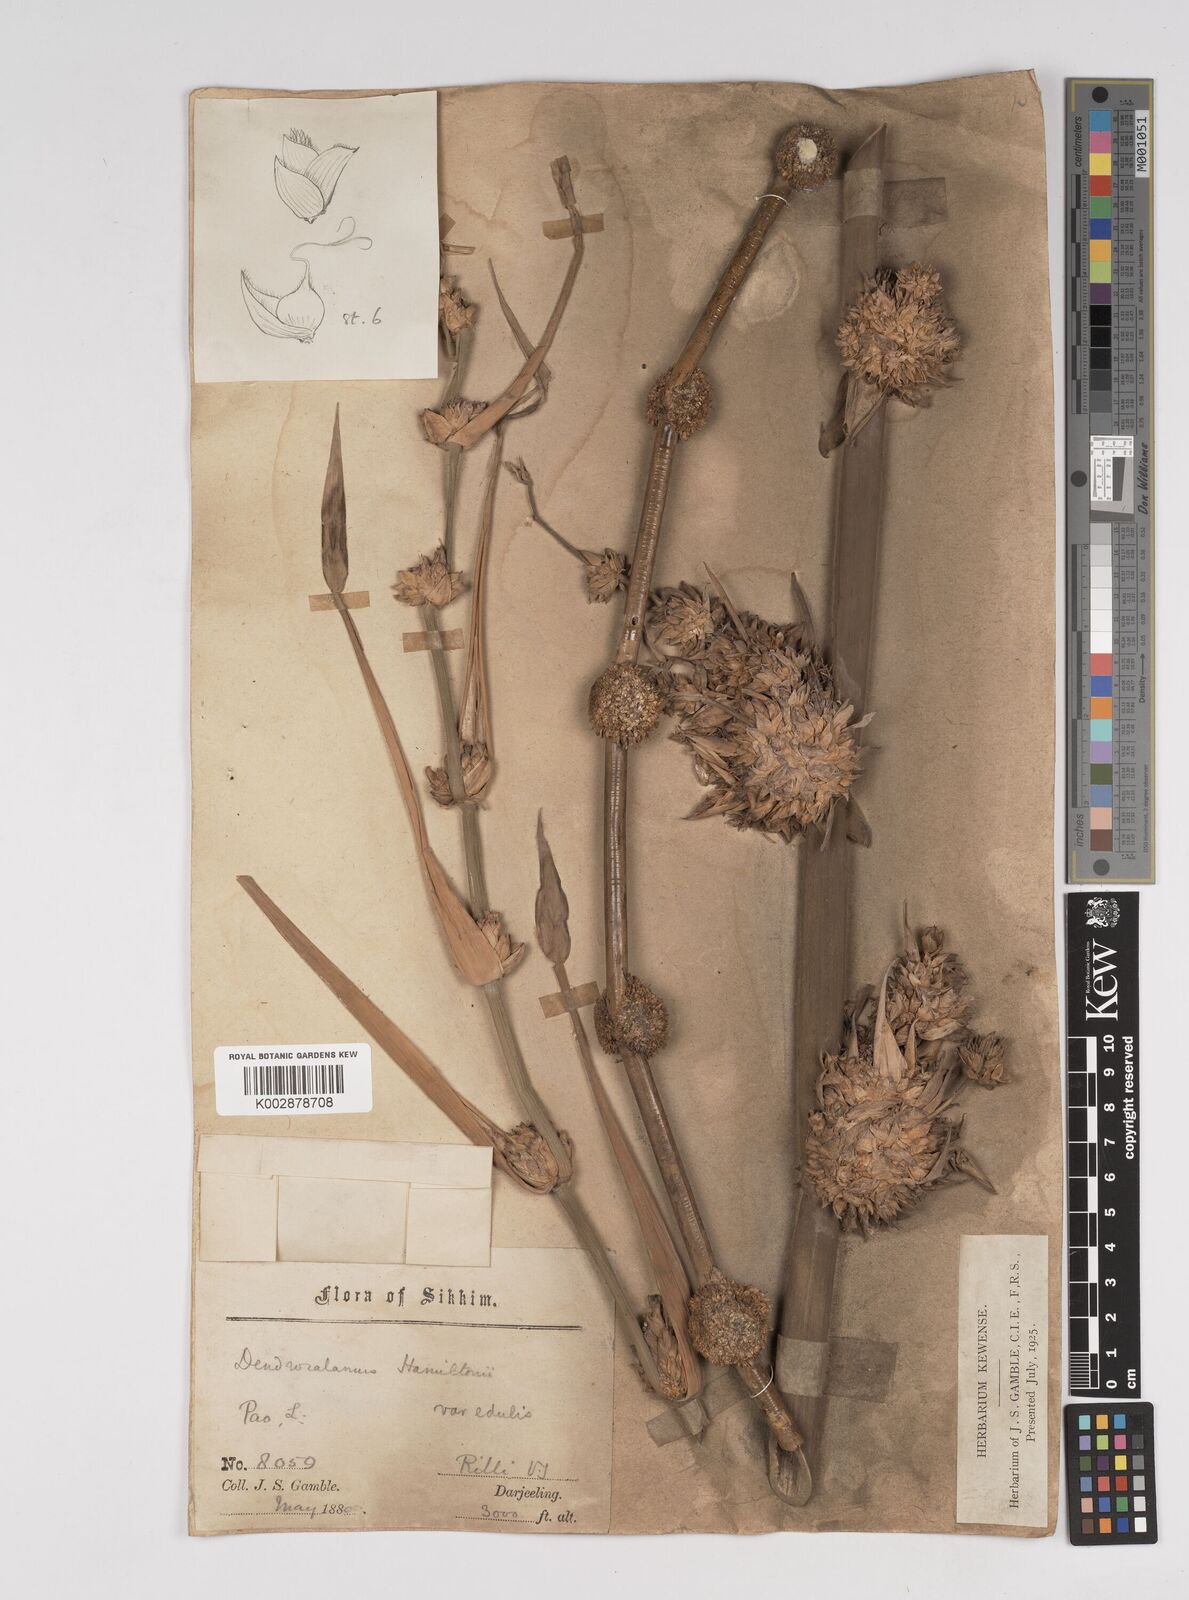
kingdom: Plantae
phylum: Tracheophyta
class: Liliopsida
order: Poales
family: Poaceae
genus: Dendrocalamus
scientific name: Dendrocalamus hamiltonii
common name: Tama bamboo
